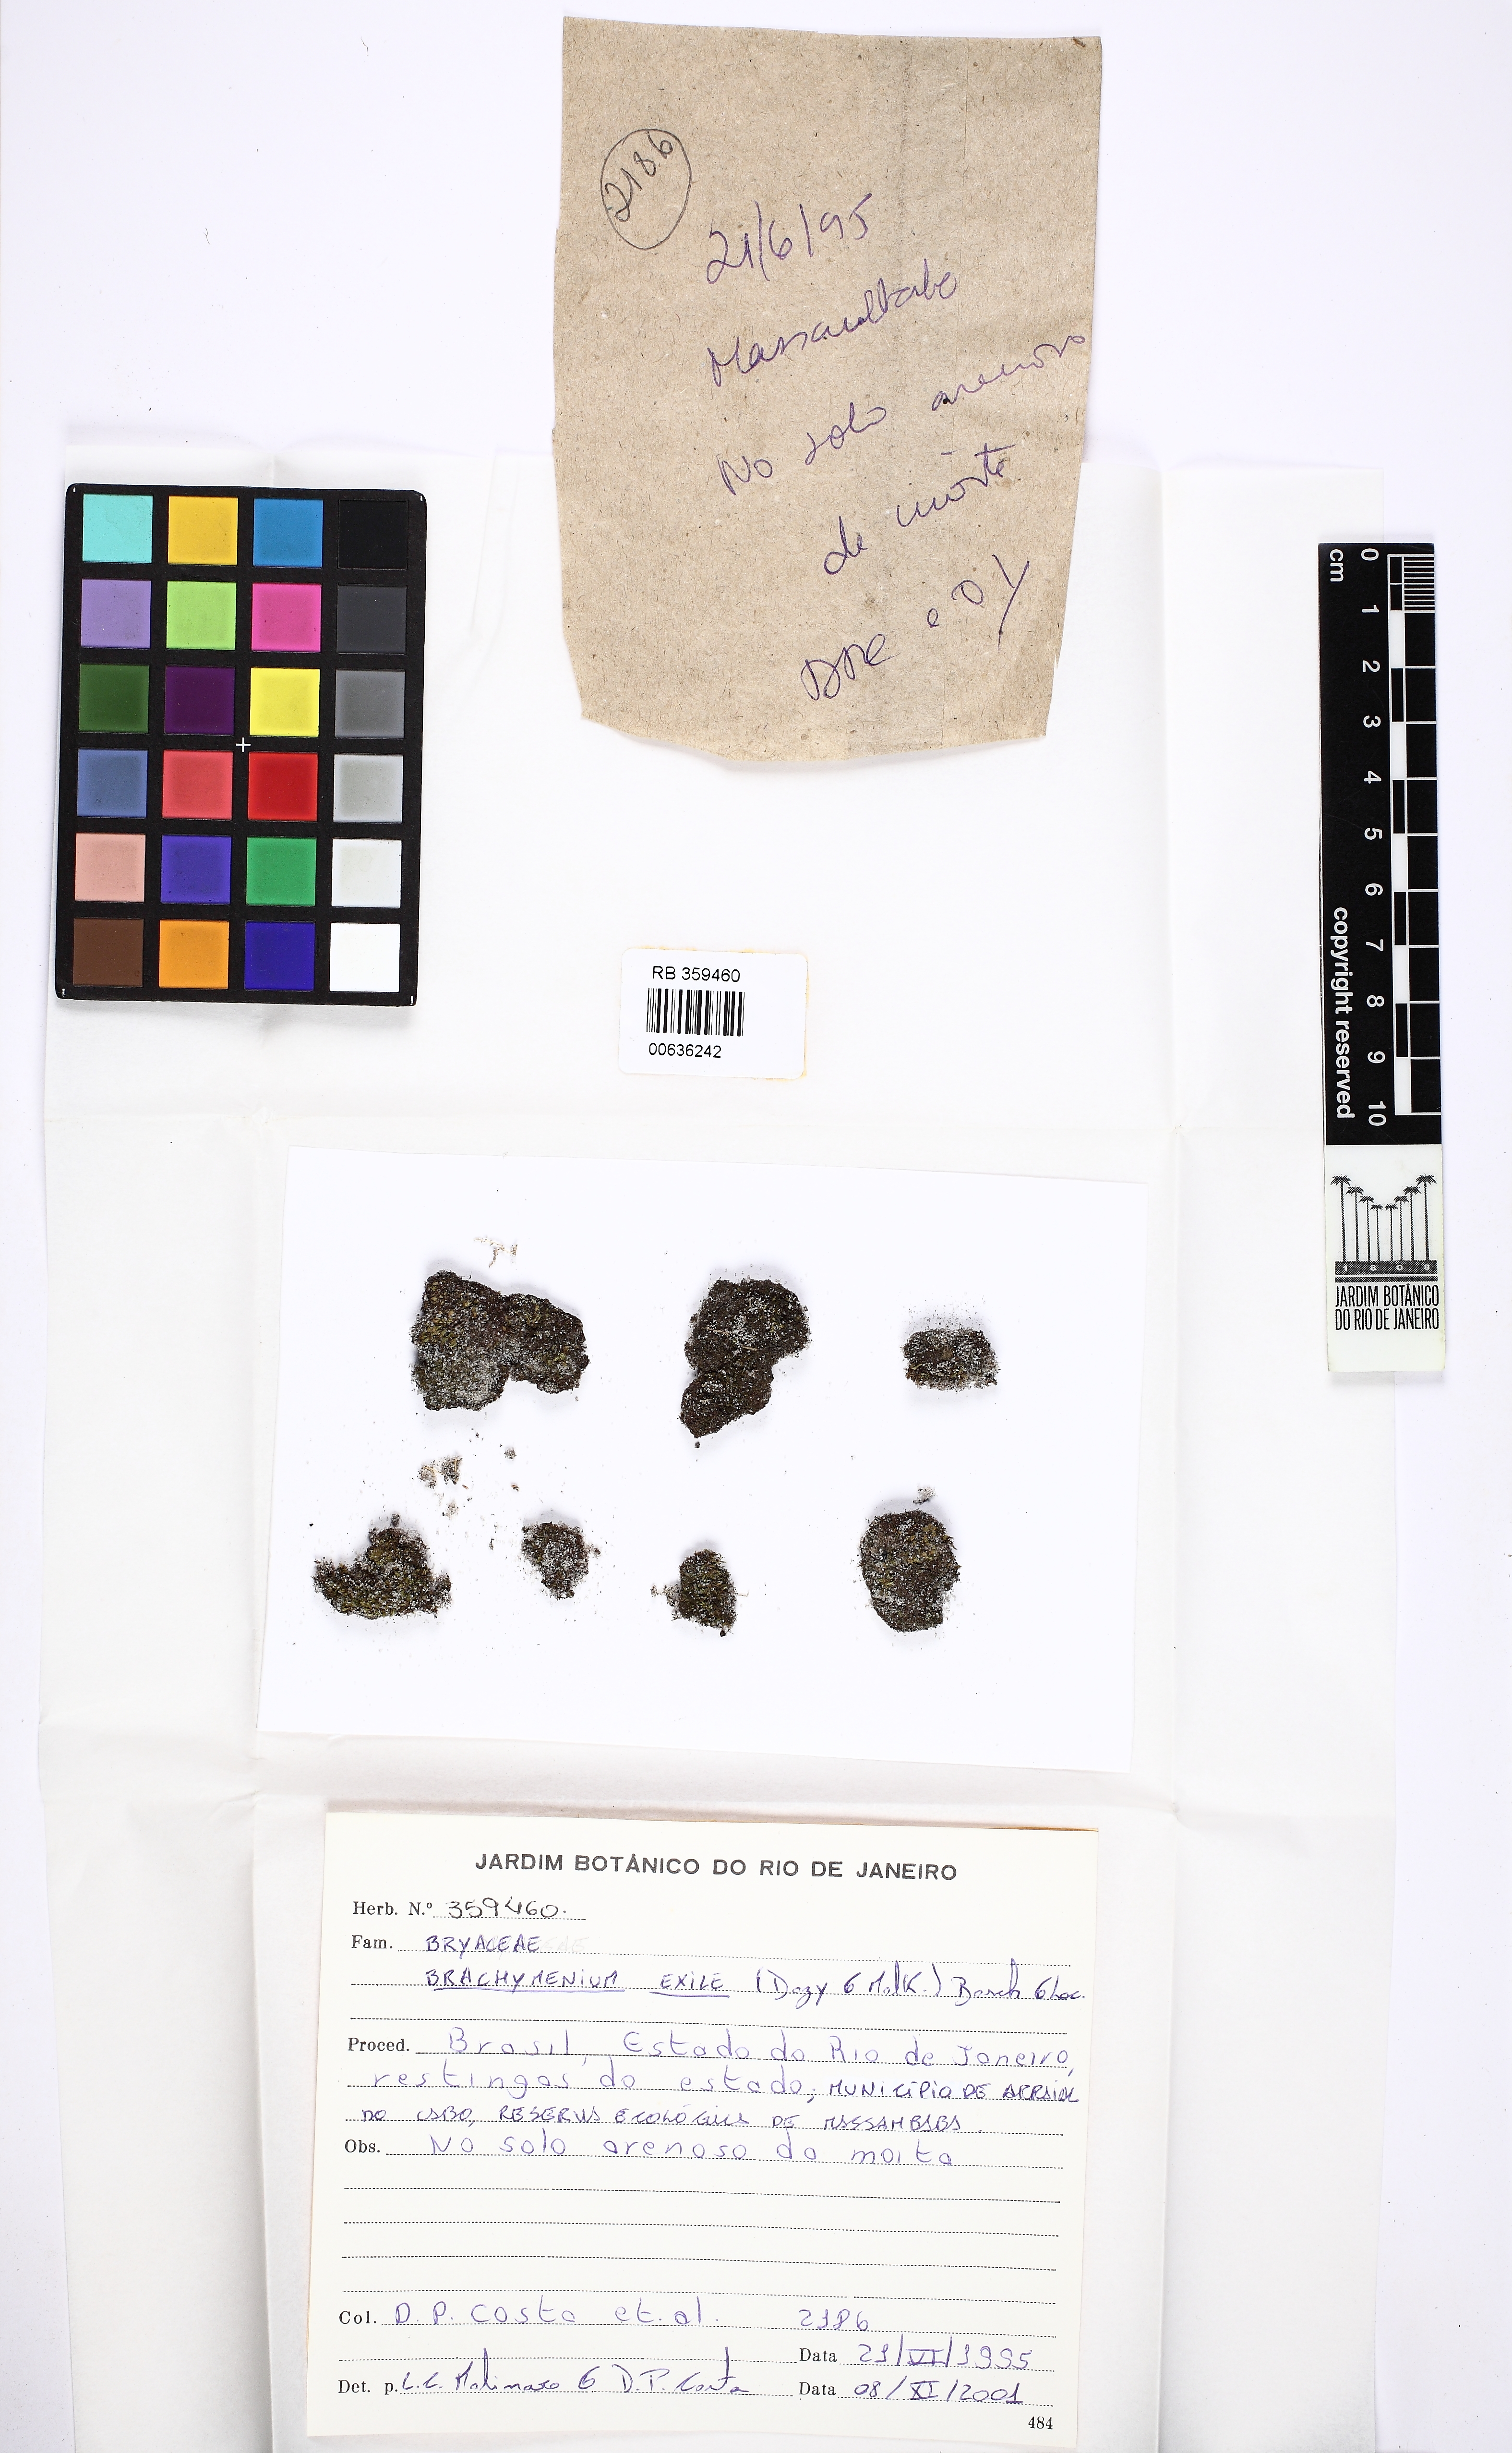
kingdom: Plantae
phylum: Bryophyta
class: Bryopsida
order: Bryales
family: Bryaceae
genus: Gemmabryum
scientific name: Gemmabryum exile
